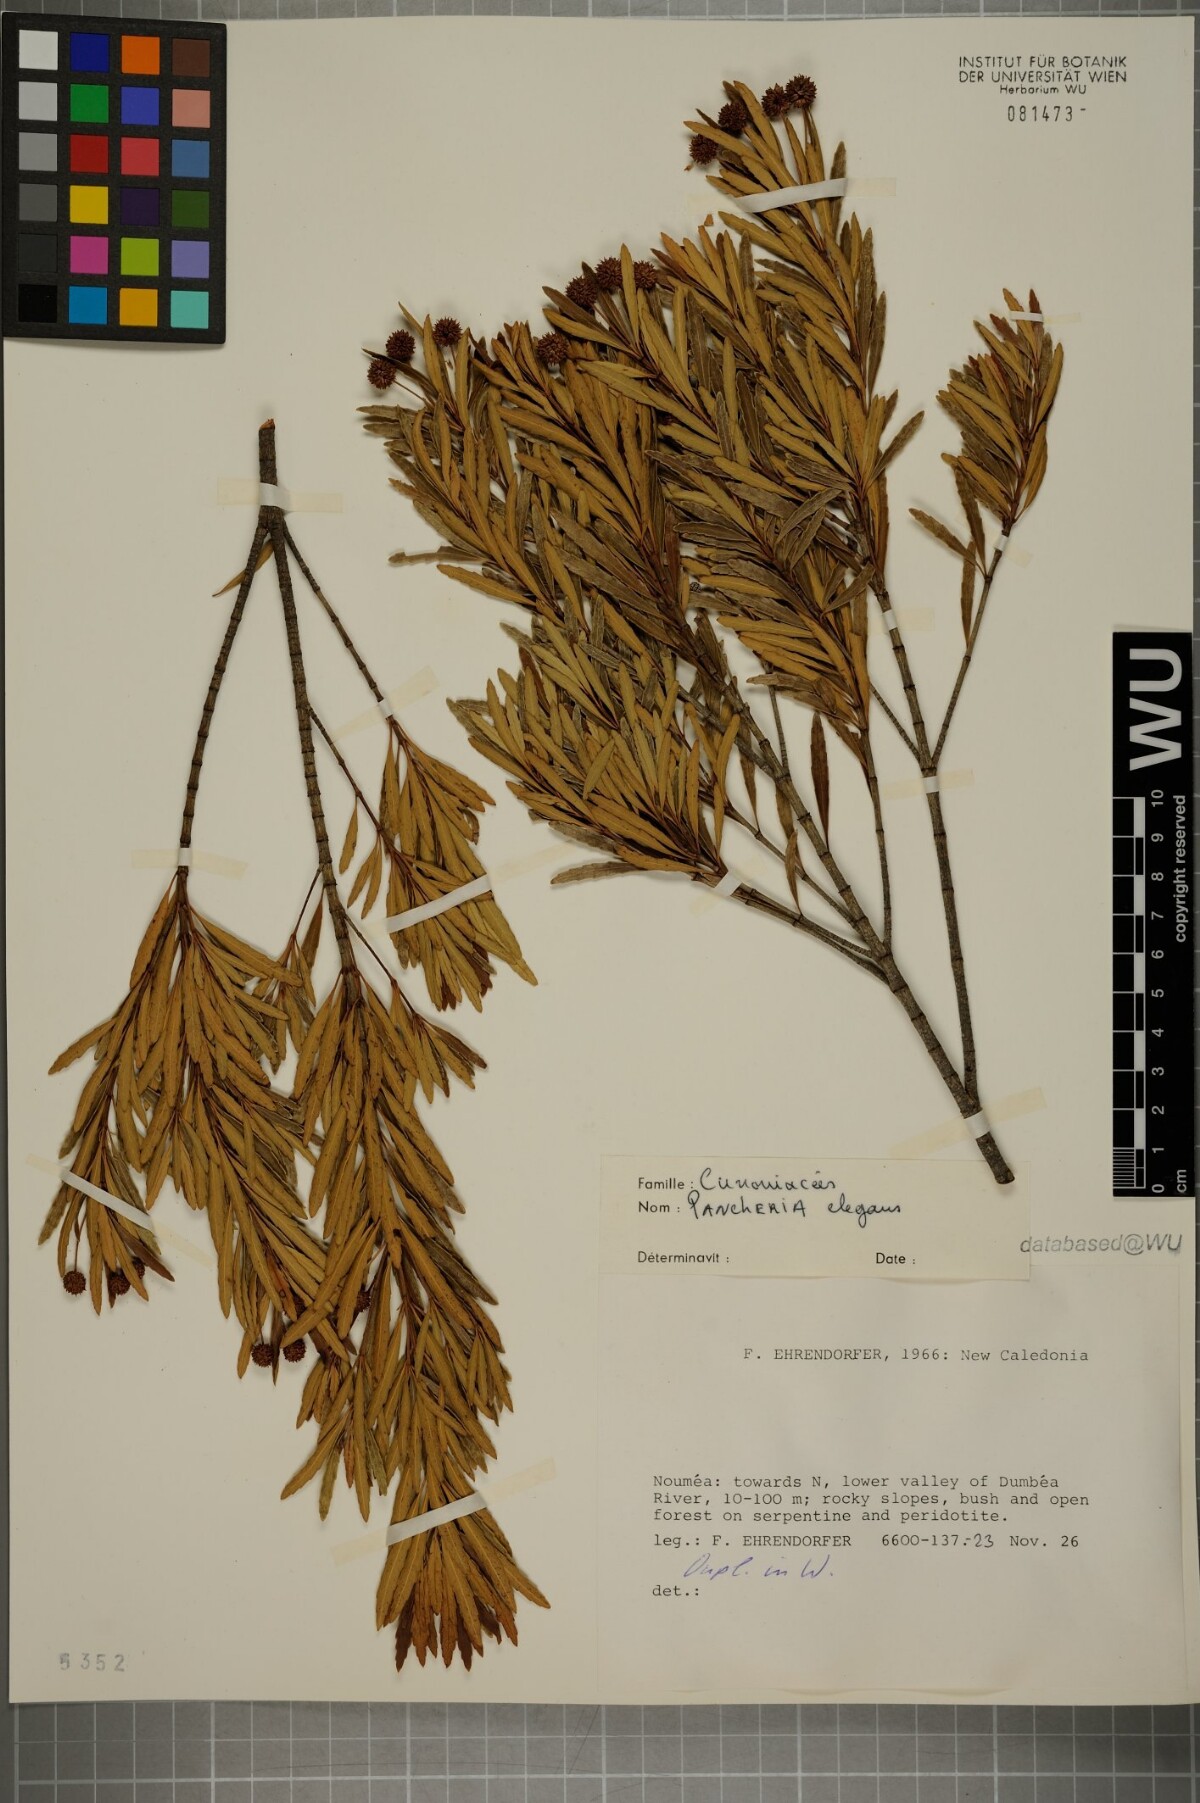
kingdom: Plantae
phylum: Tracheophyta
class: Magnoliopsida
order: Oxalidales
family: Cunoniaceae
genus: Pancheria
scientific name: Pancheria elegans
